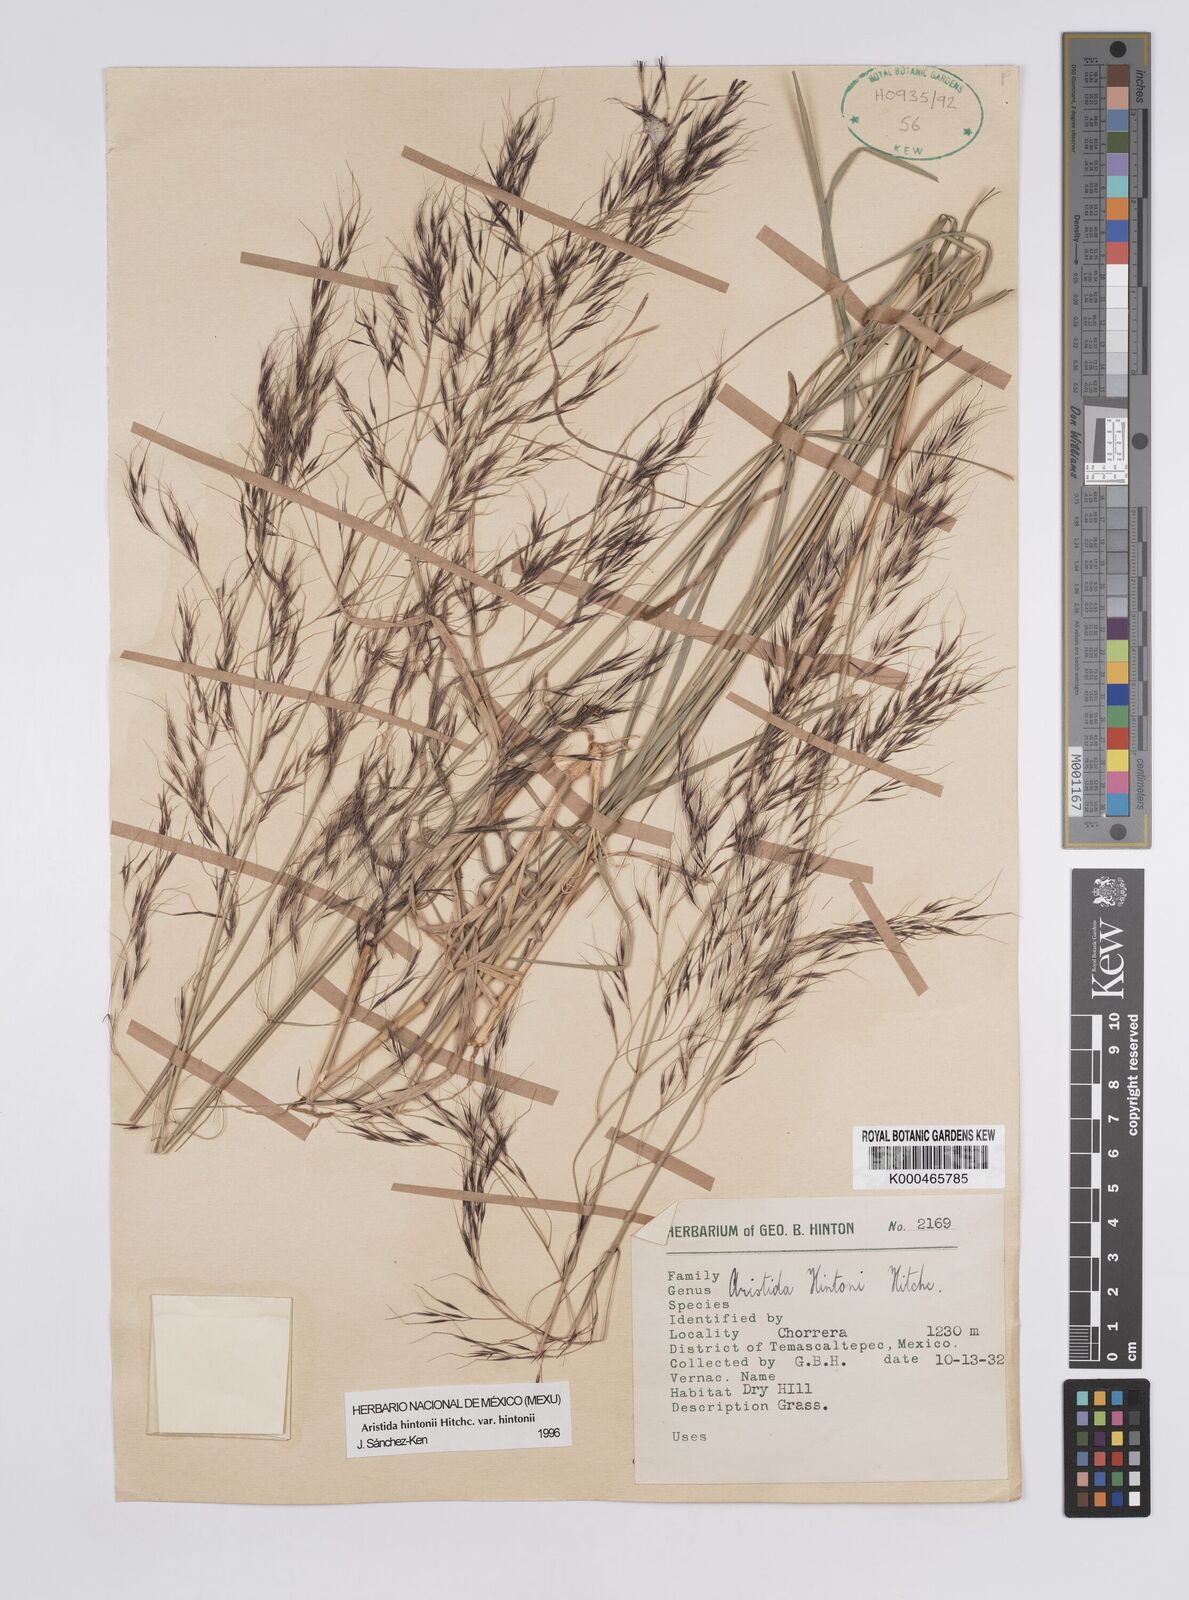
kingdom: Plantae
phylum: Tracheophyta
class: Liliopsida
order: Poales
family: Poaceae
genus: Aristida
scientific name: Aristida hintonii
